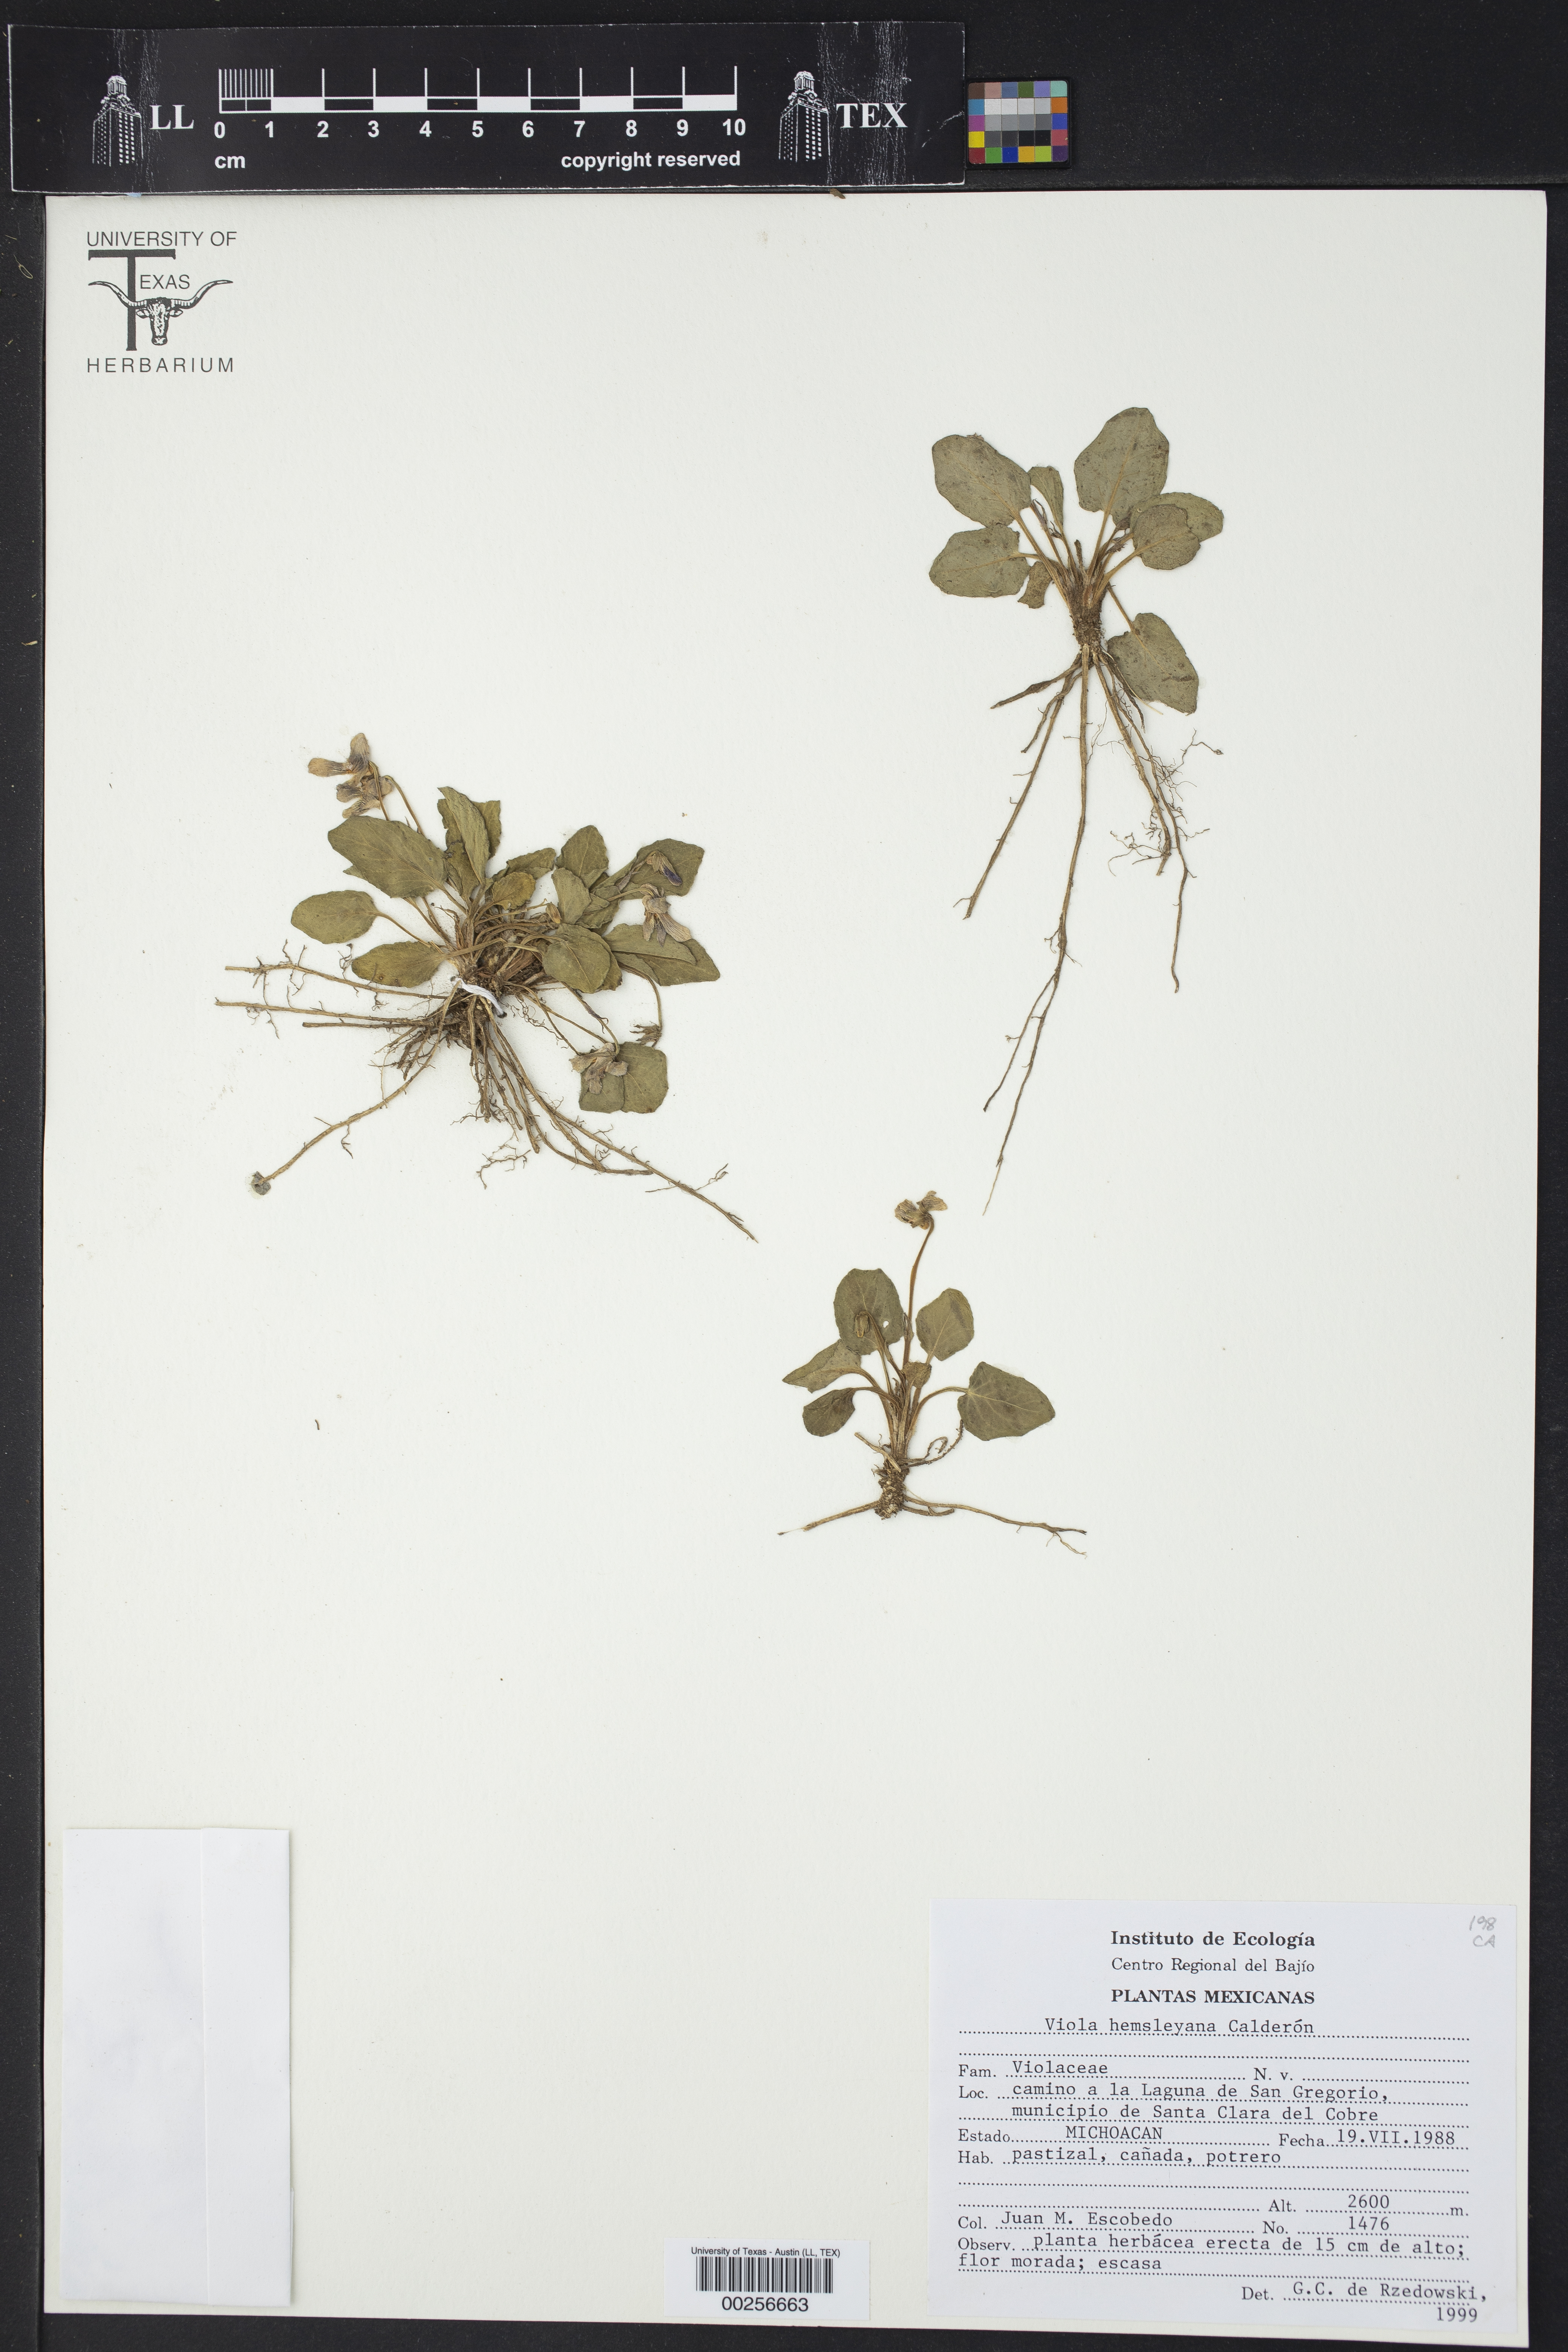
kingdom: Plantae
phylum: Tracheophyta
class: Magnoliopsida
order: Malpighiales
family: Violaceae
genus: Viola
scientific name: Viola hemsleyana
